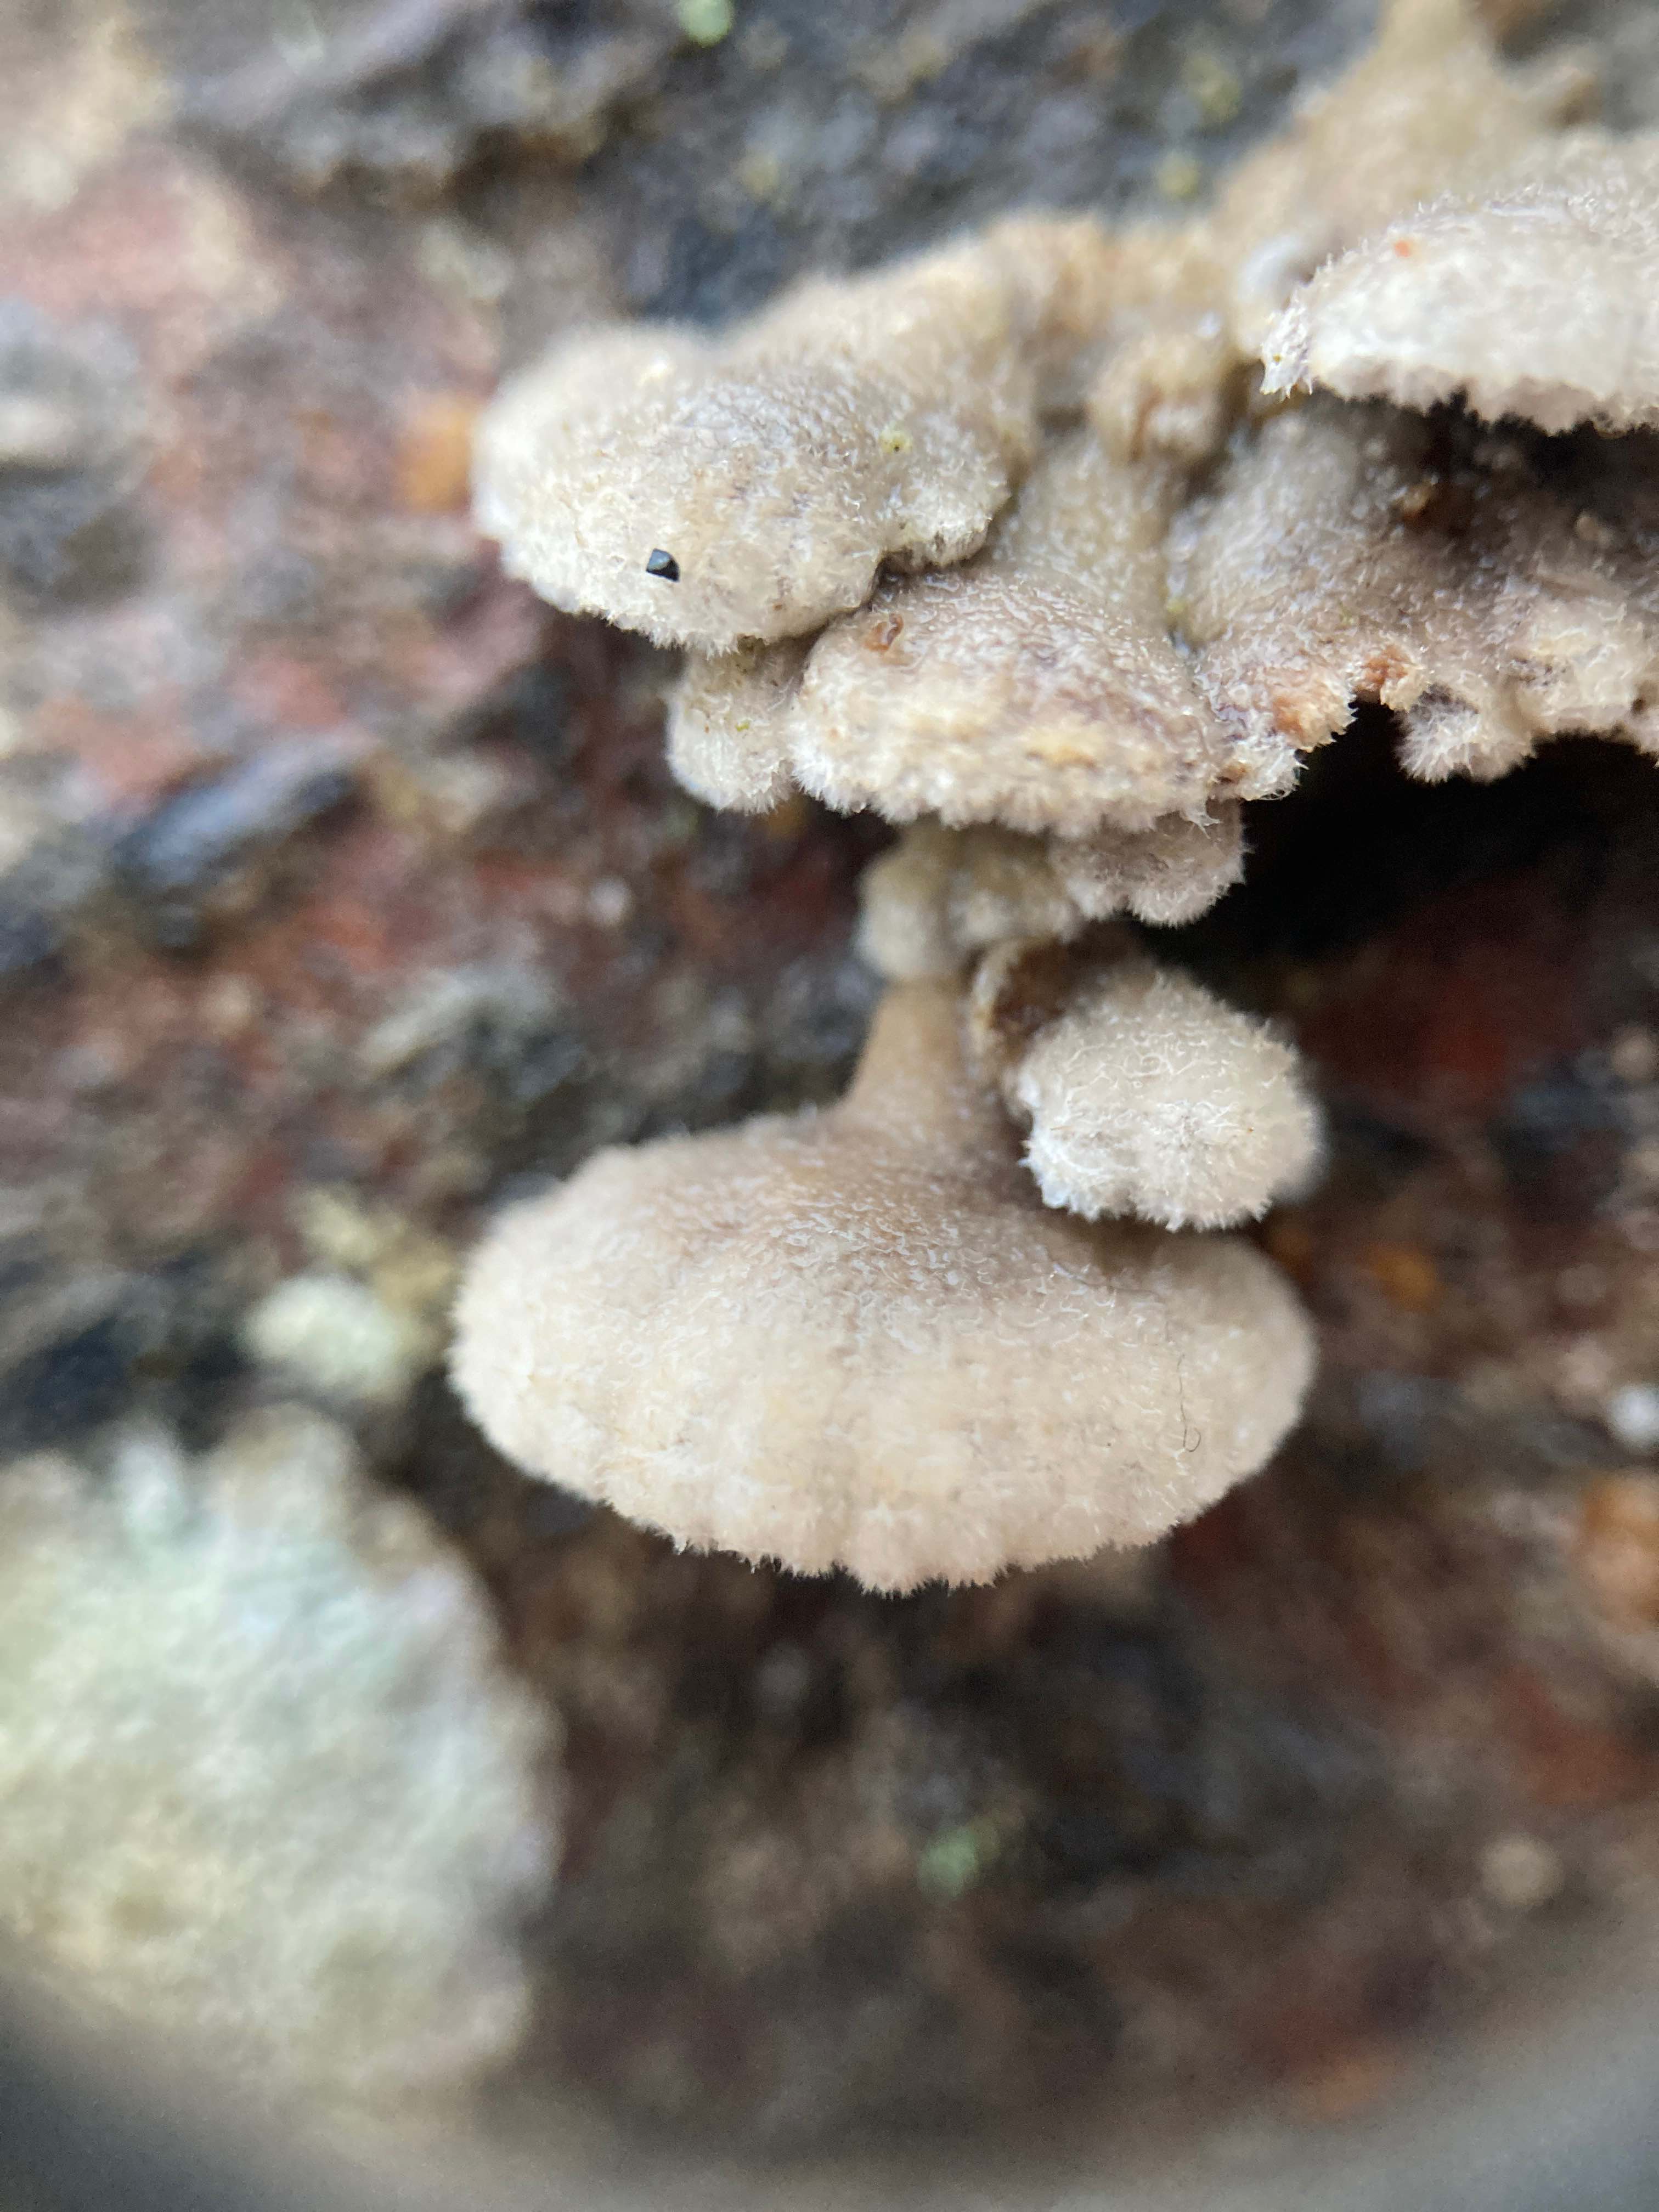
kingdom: Fungi
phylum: Basidiomycota
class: Agaricomycetes
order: Agaricales
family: Schizophyllaceae
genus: Schizophyllum
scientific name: Schizophyllum commune
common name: kløvblad
